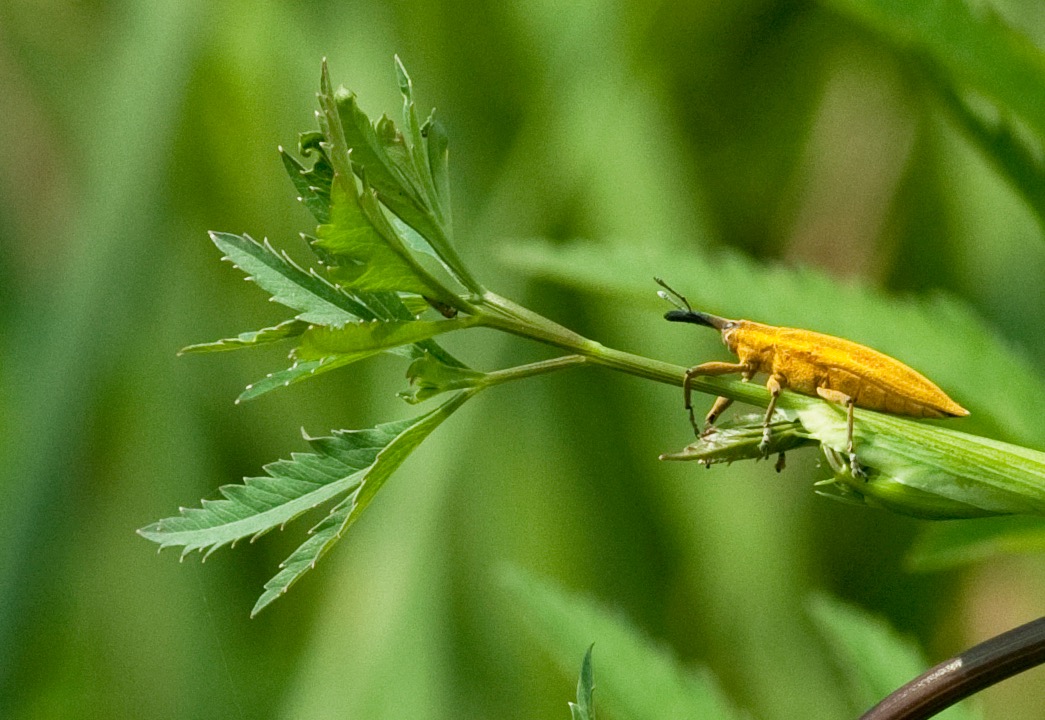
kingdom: Animalia
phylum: Arthropoda
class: Insecta
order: Coleoptera
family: Curculionidae
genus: Lixus
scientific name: Lixus iridis
